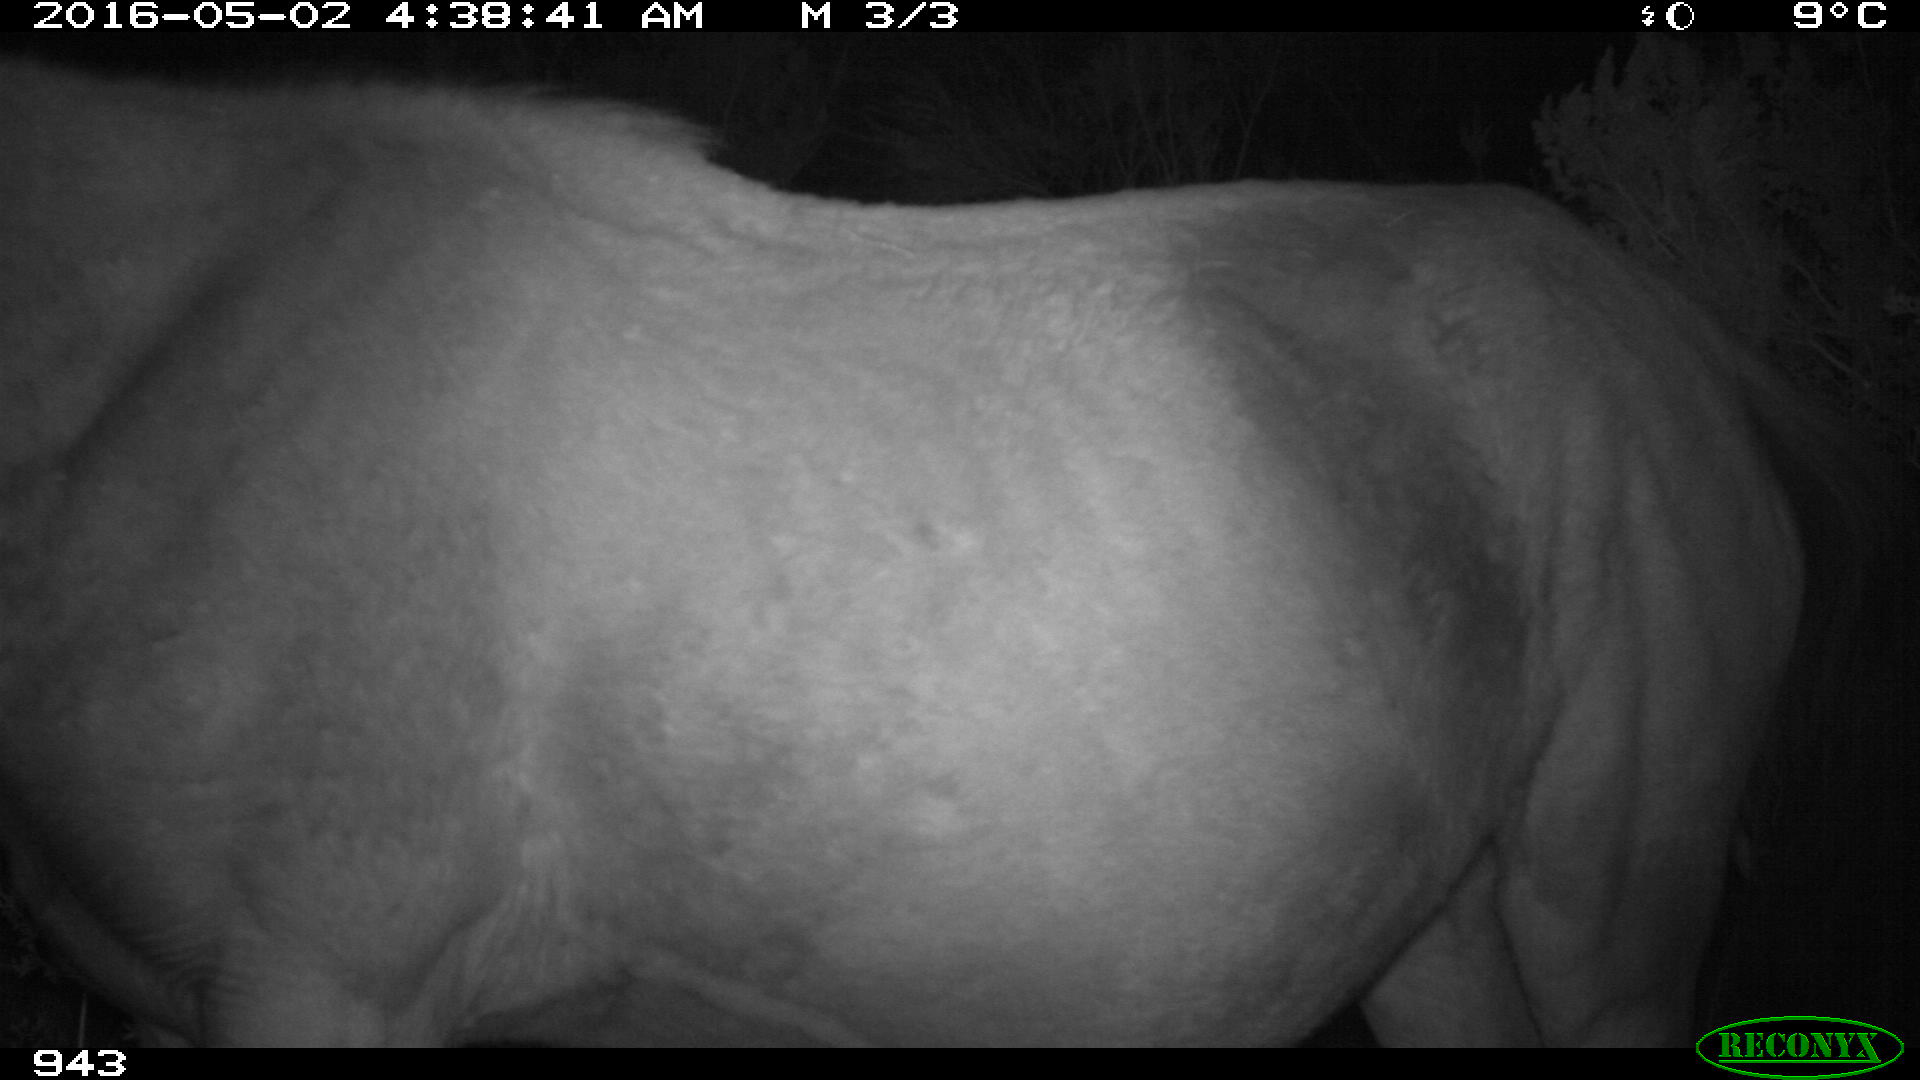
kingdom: Animalia
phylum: Chordata
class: Mammalia
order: Perissodactyla
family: Equidae
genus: Equus
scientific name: Equus caballus
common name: Horse
